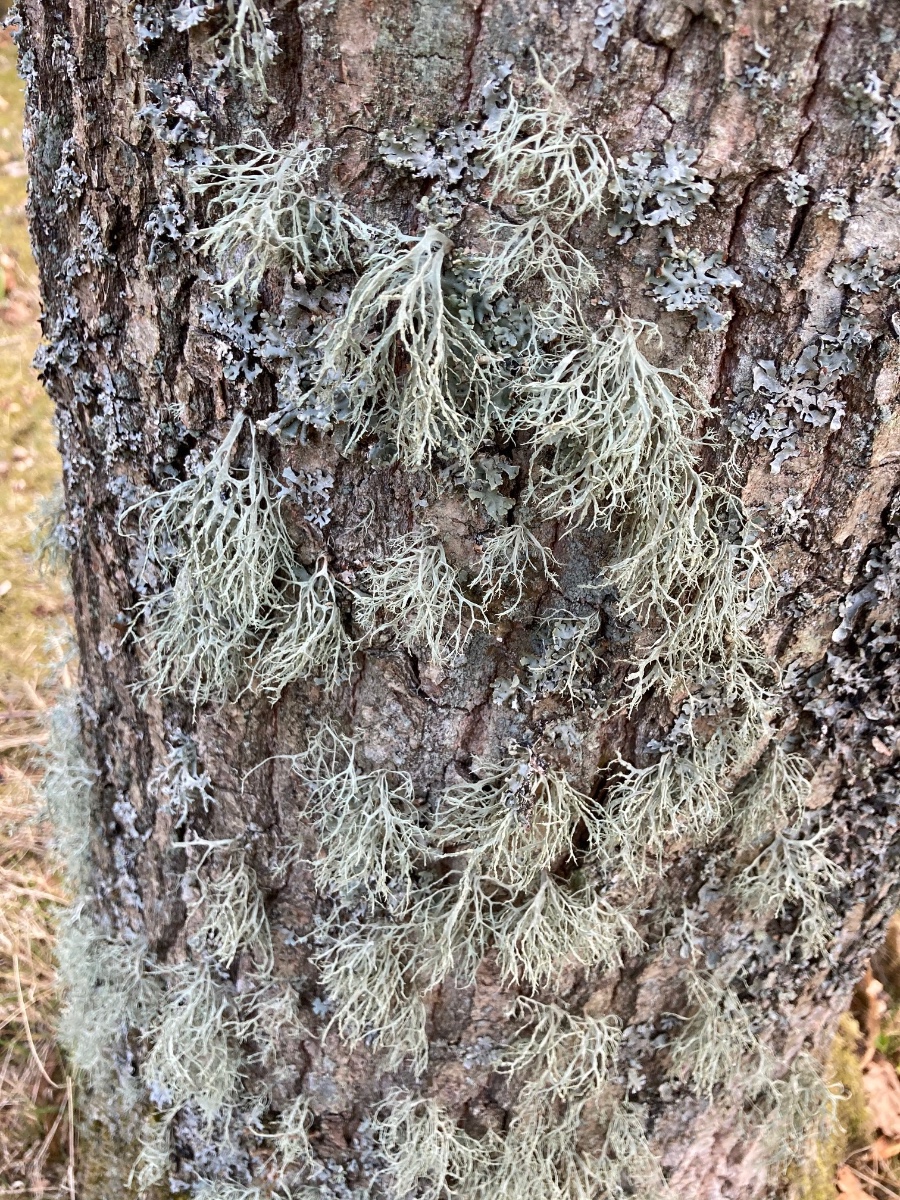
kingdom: Fungi
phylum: Ascomycota
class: Lecanoromycetes
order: Lecanorales
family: Ramalinaceae
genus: Ramalina
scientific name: Ramalina farinacea
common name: melet grenlav
